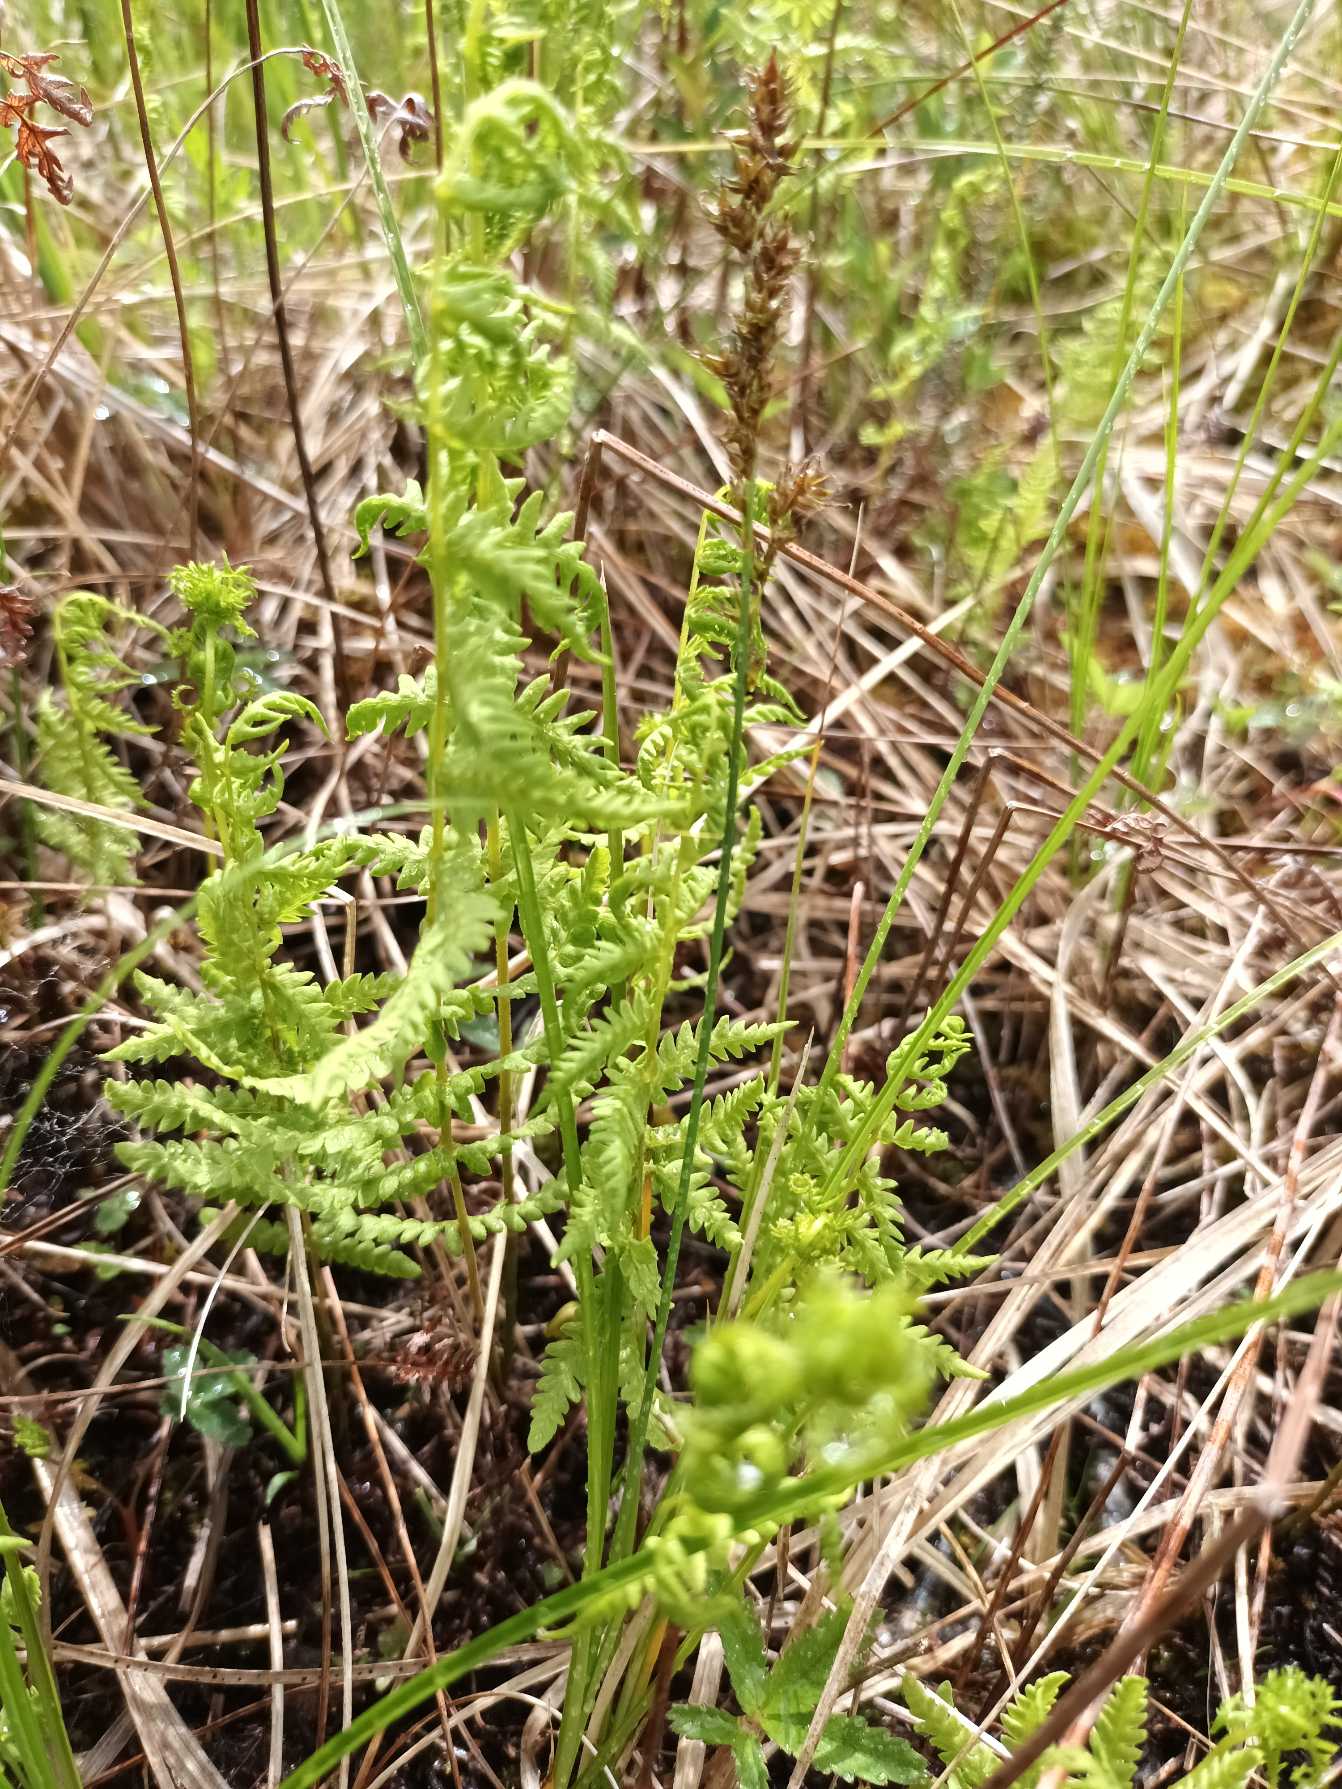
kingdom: Plantae
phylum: Tracheophyta
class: Polypodiopsida
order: Polypodiales
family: Thelypteridaceae
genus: Thelypteris
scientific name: Thelypteris palustris
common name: Kærmangeløv
